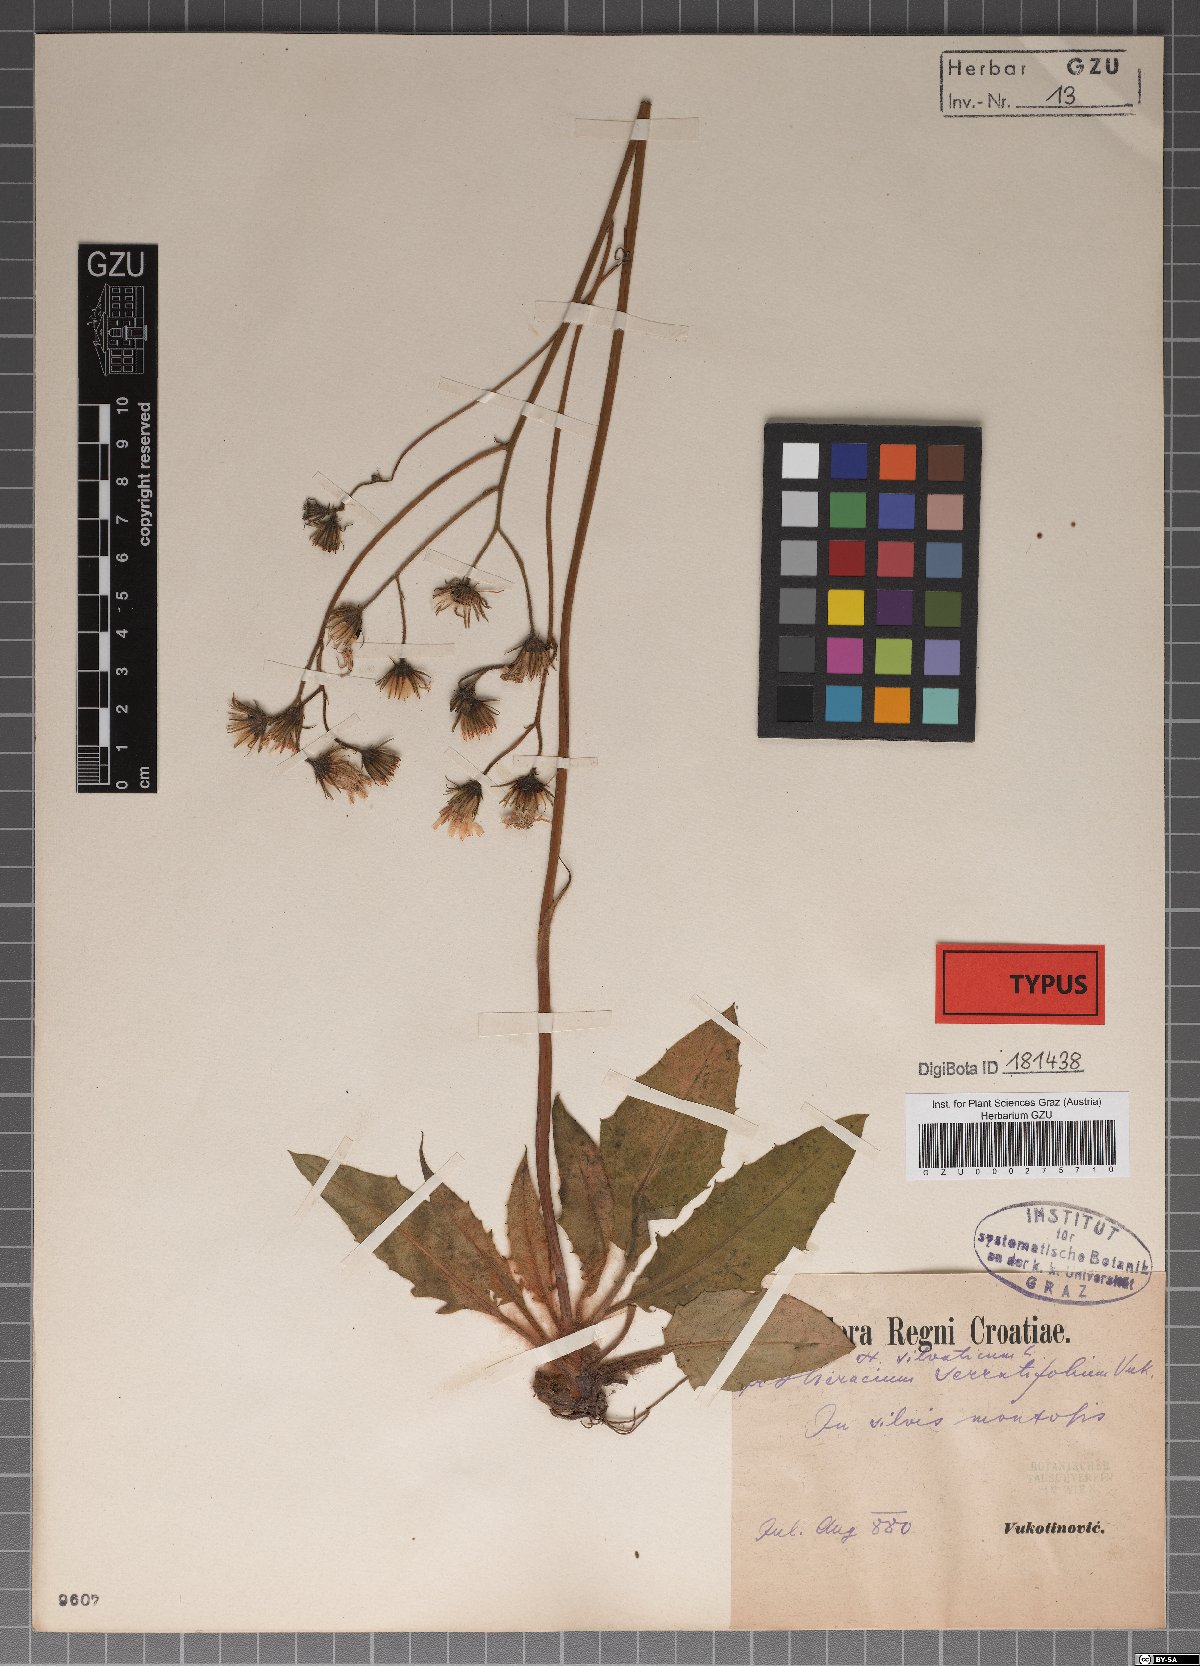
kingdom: Plantae
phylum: Tracheophyta
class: Magnoliopsida
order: Asterales
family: Asteraceae
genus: Hieracium
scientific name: Hieracium rotundatum
